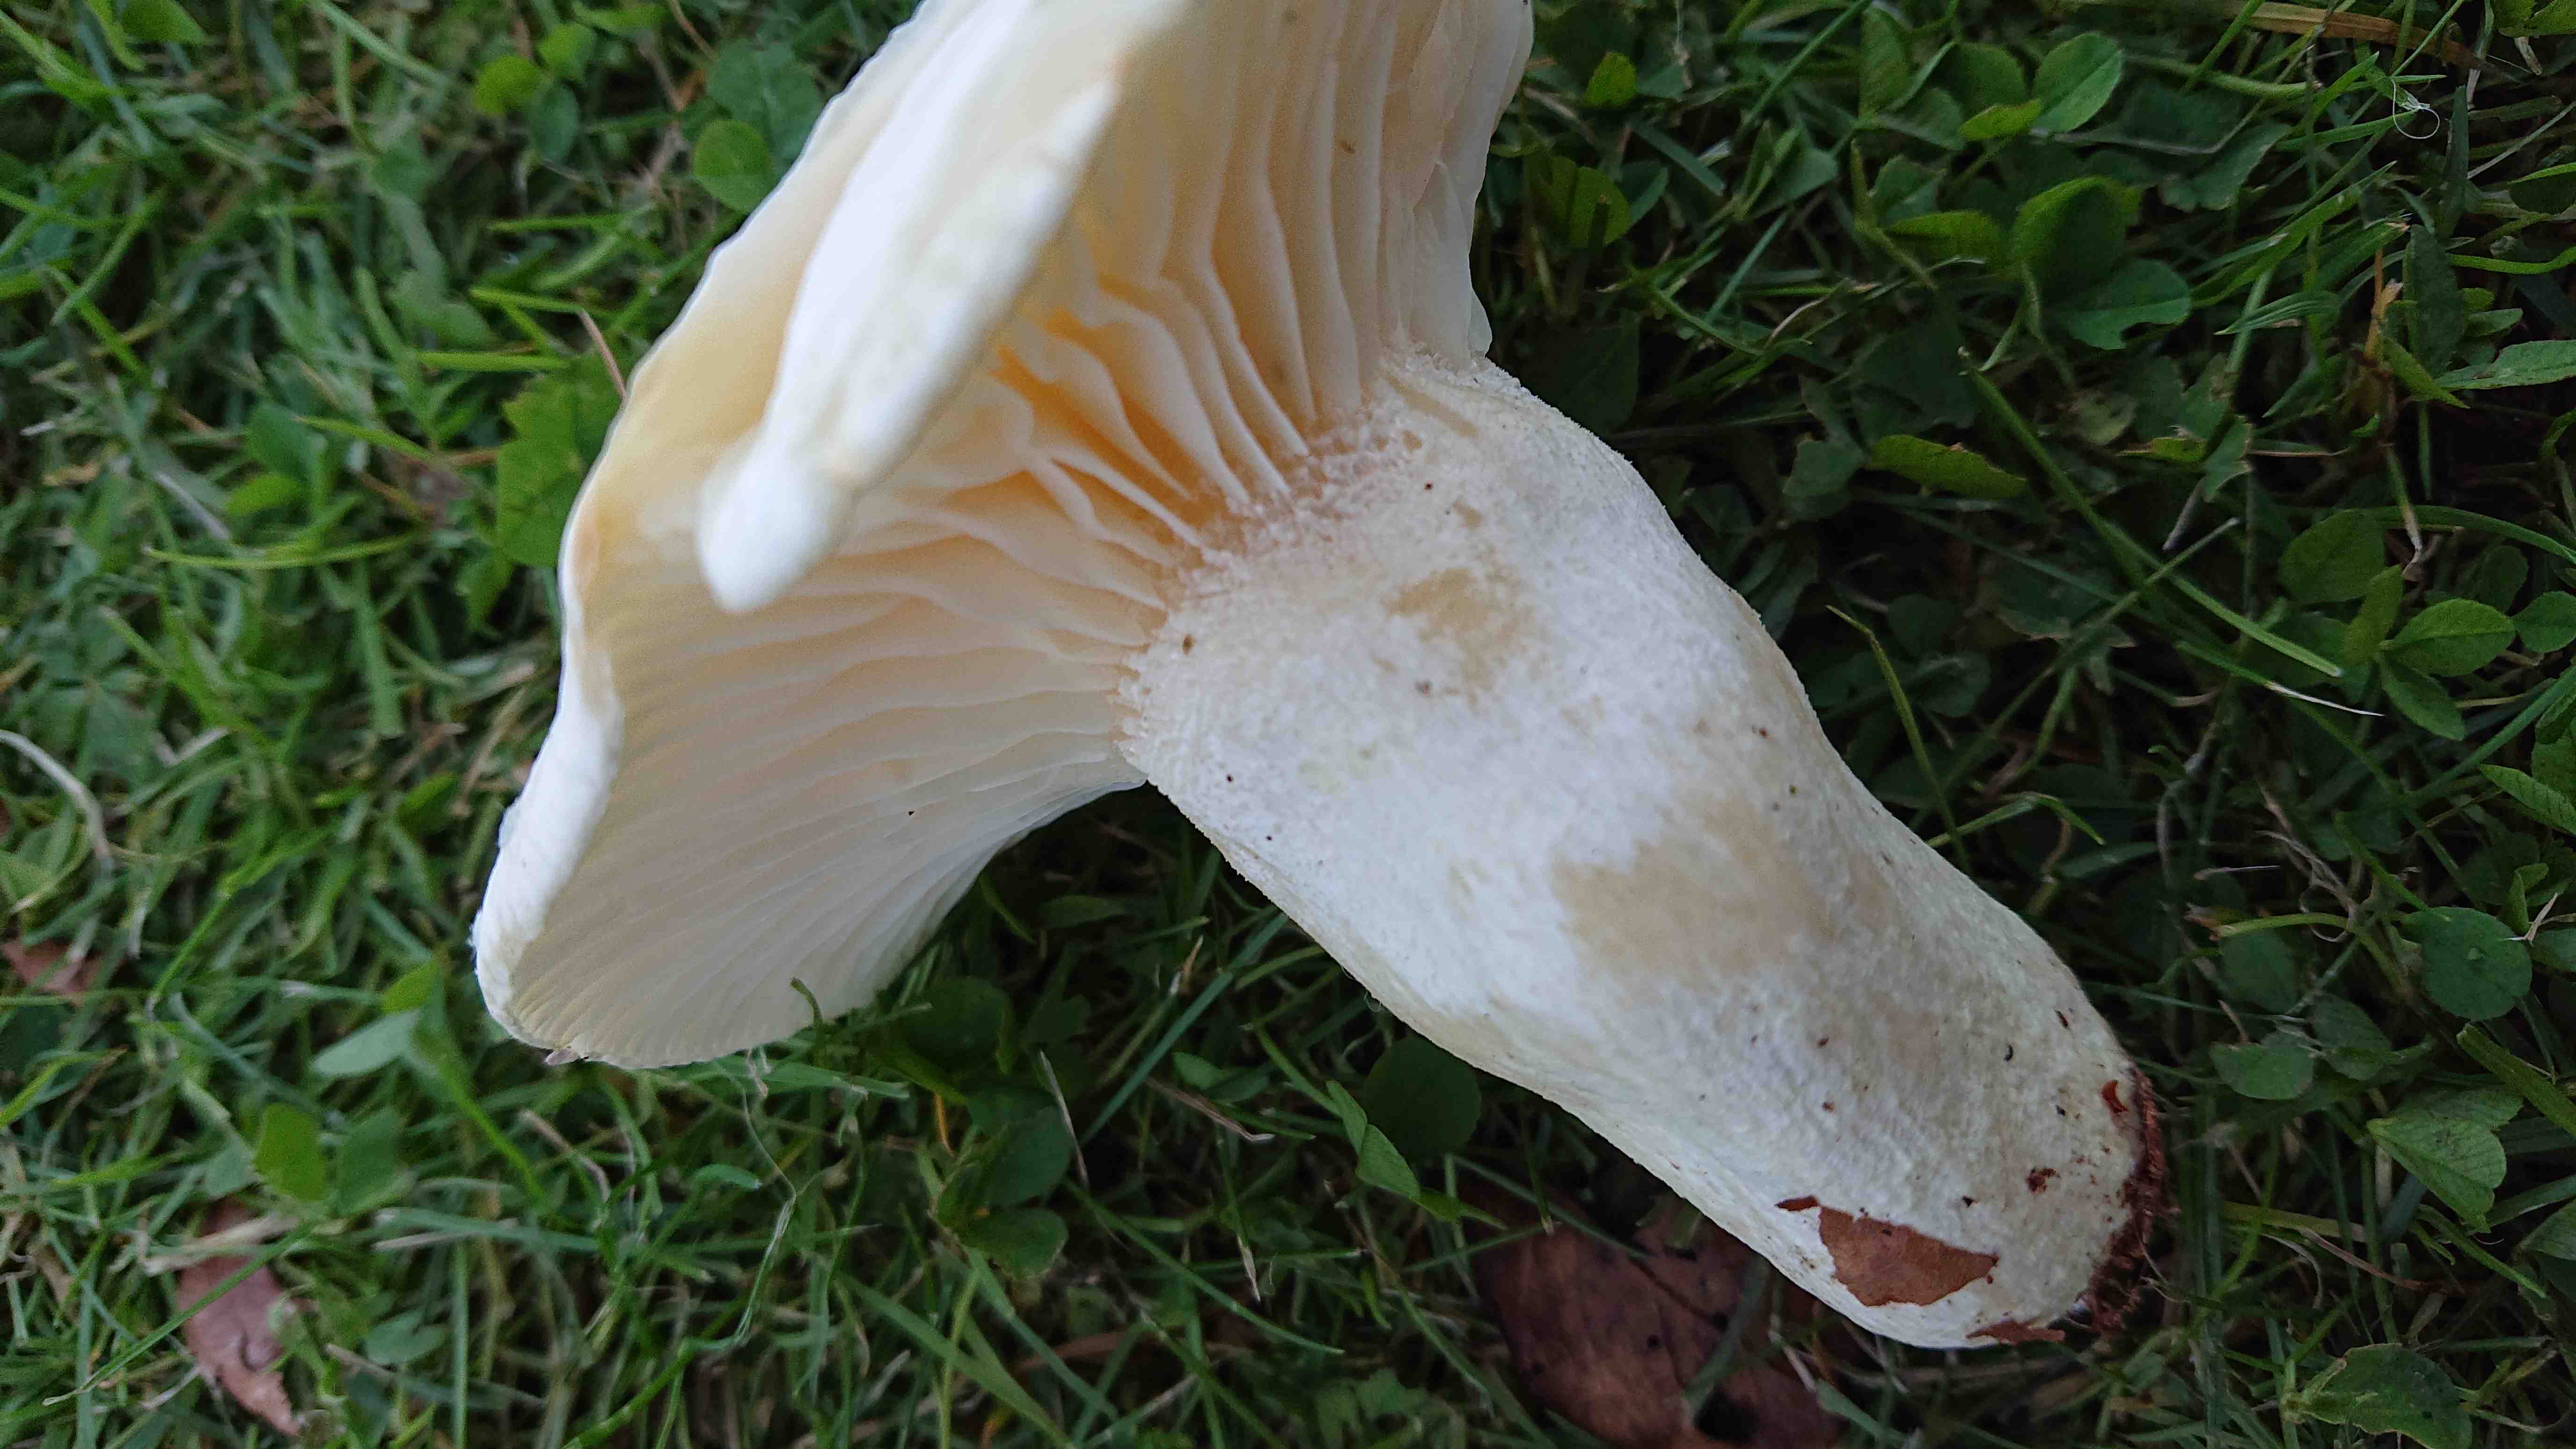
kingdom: Fungi
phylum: Basidiomycota
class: Agaricomycetes
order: Agaricales
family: Hygrophoraceae
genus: Hygrophorus
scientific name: Hygrophorus penarius
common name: spiselig sneglehat
